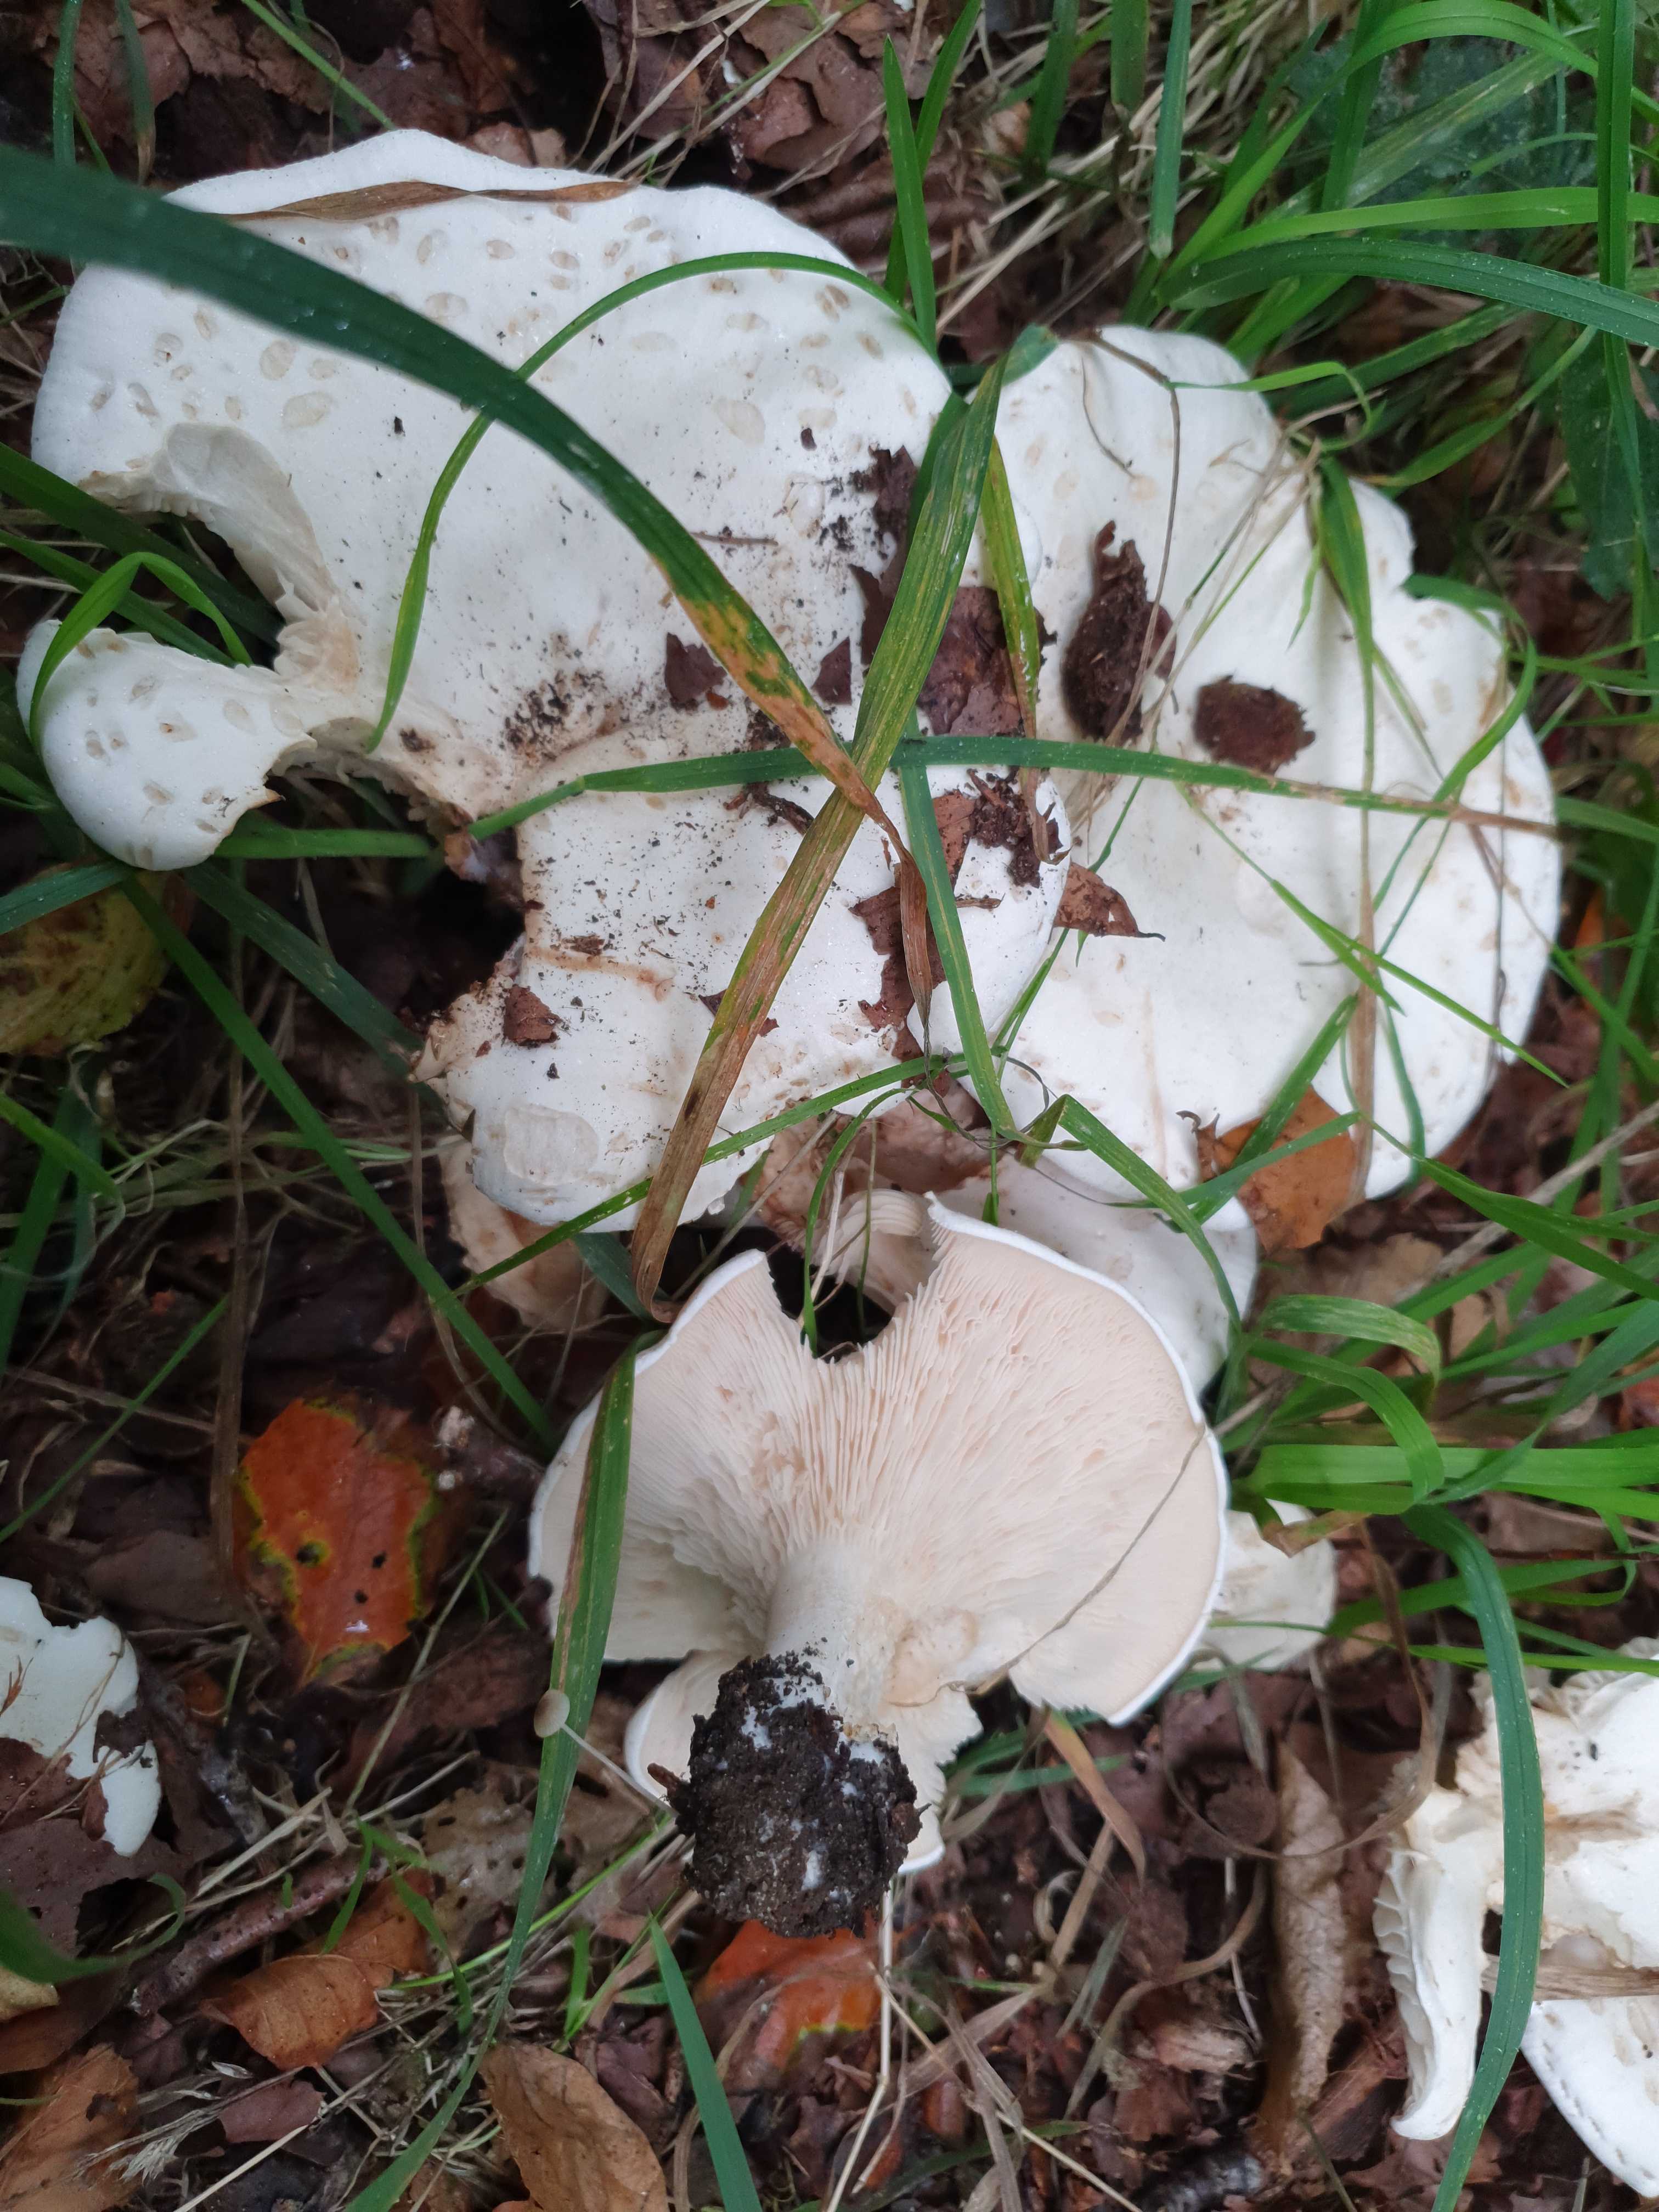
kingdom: Fungi
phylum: Basidiomycota
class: Agaricomycetes
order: Agaricales
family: Entolomataceae
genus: Clitopilus
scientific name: Clitopilus prunulus
